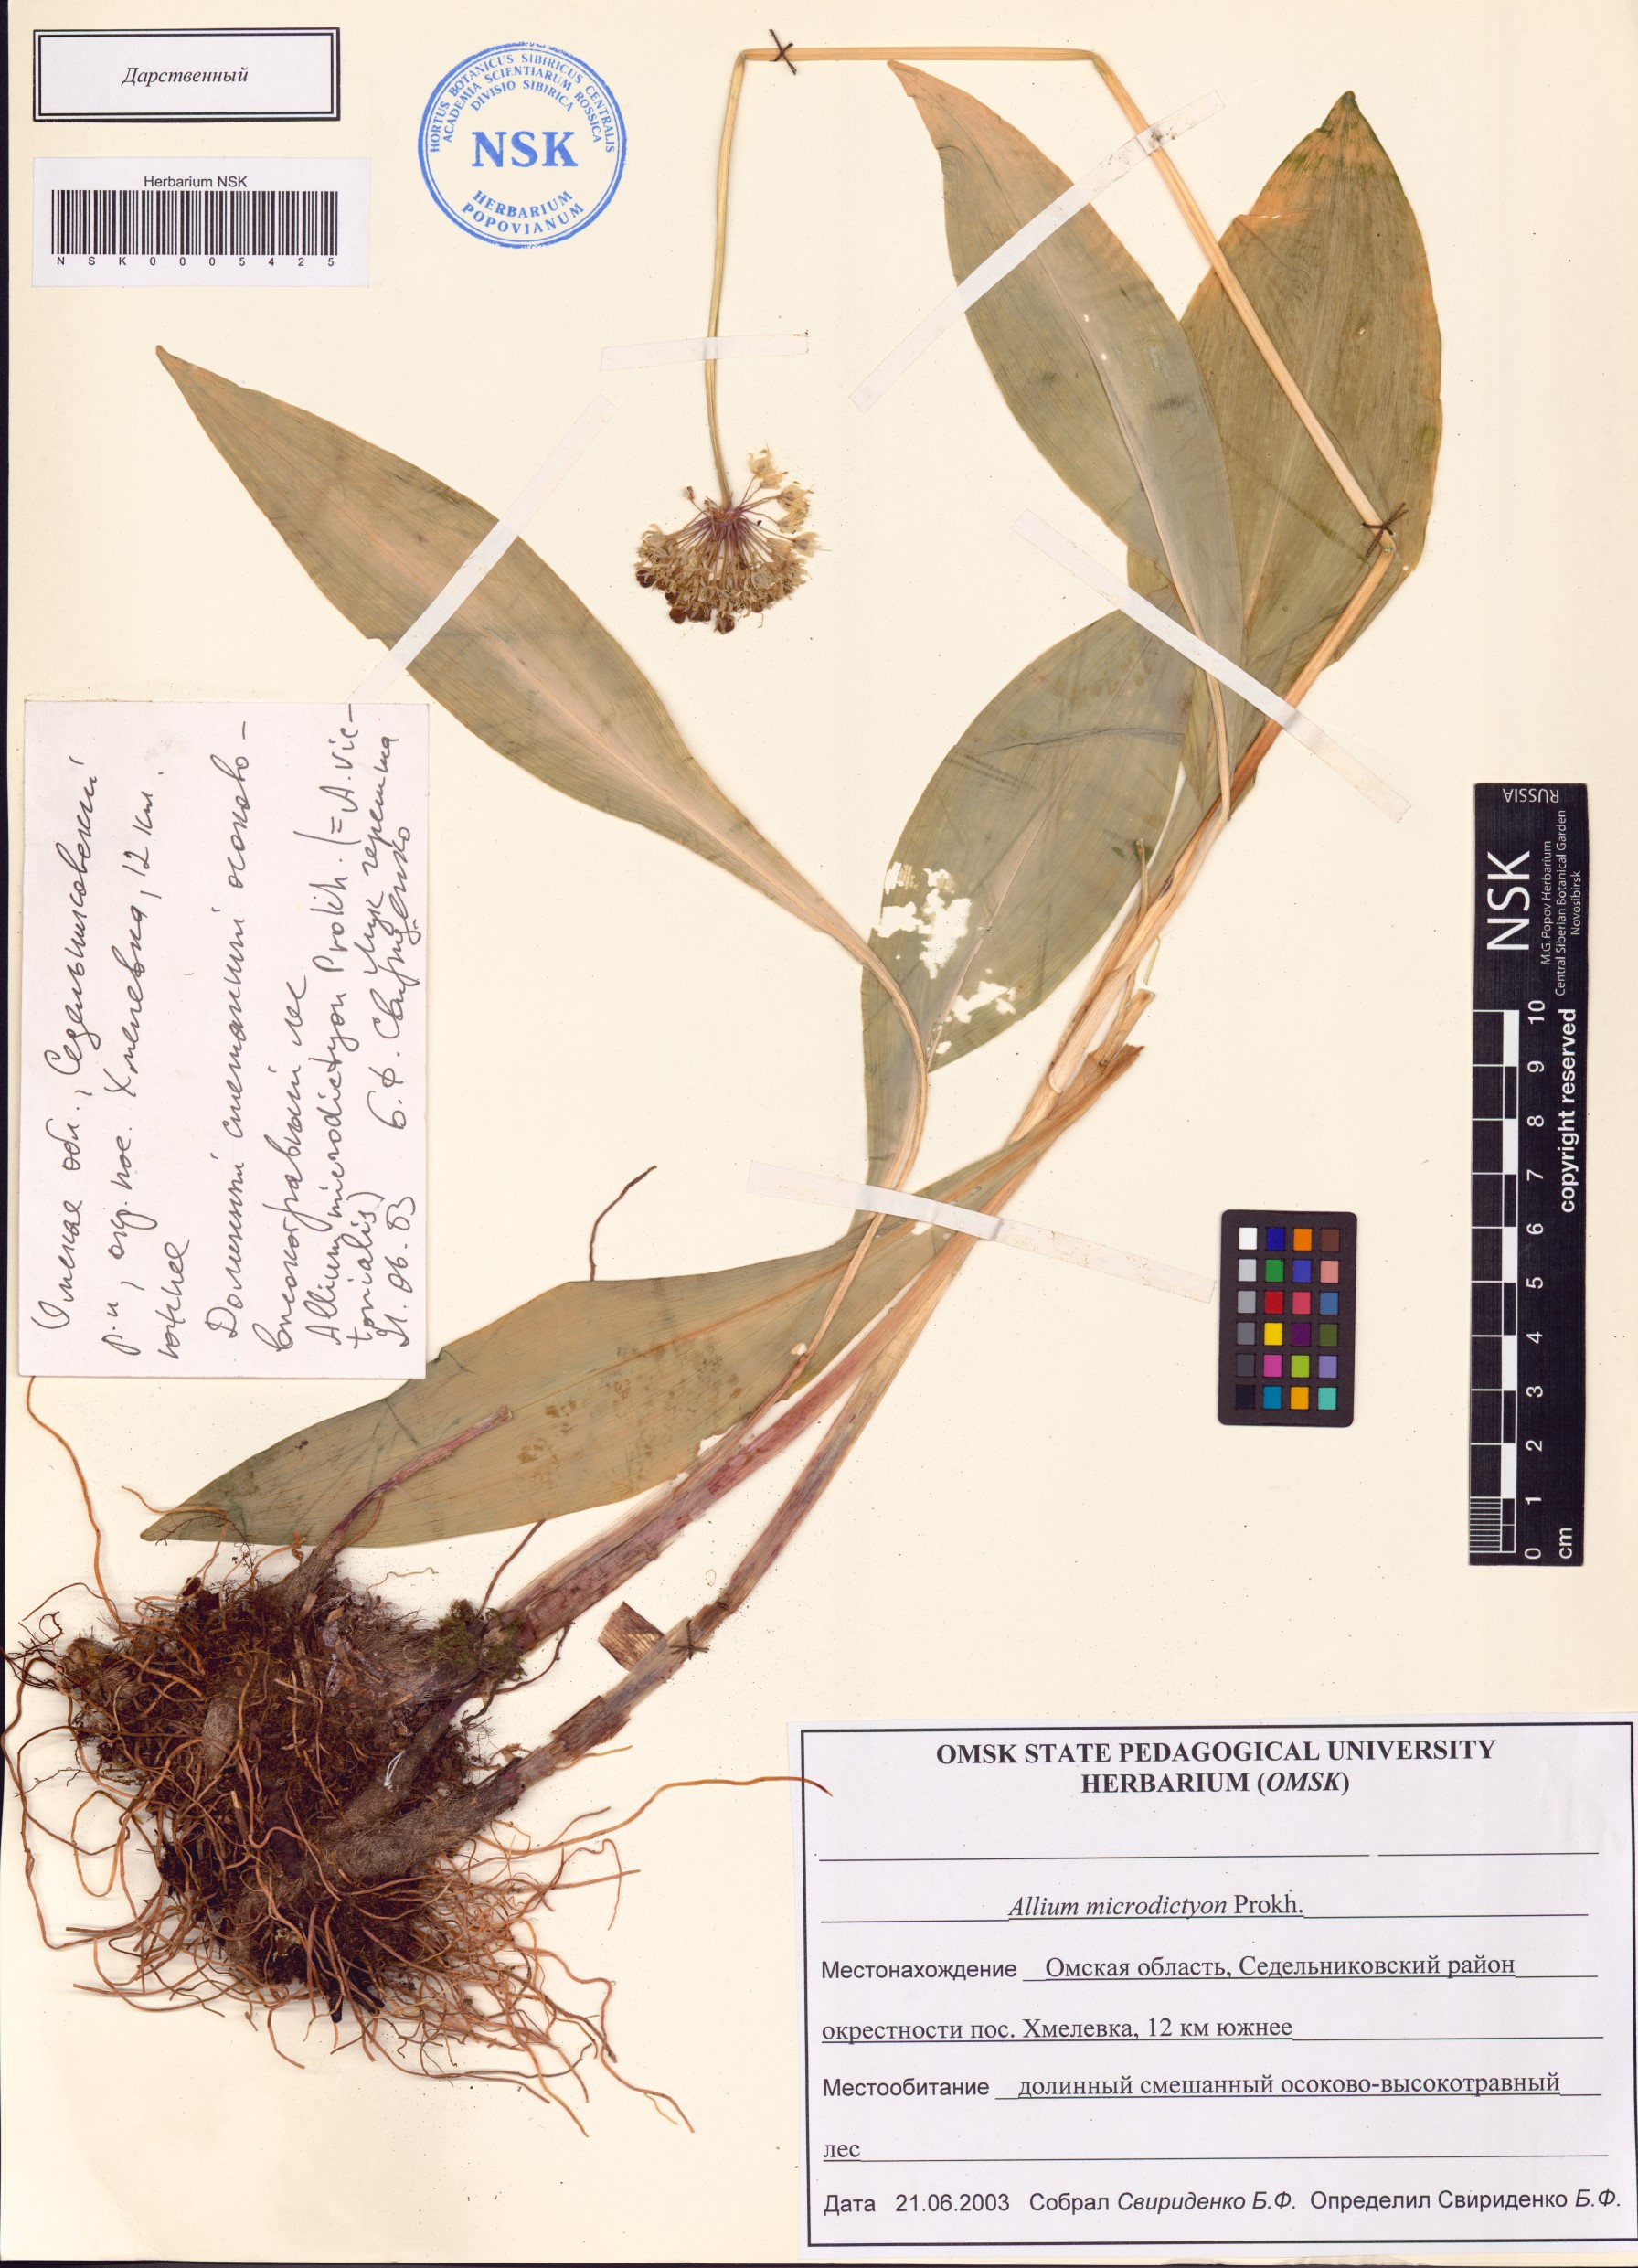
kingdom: Plantae
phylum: Tracheophyta
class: Liliopsida
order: Asparagales
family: Amaryllidaceae
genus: Allium
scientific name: Allium microdictyon
